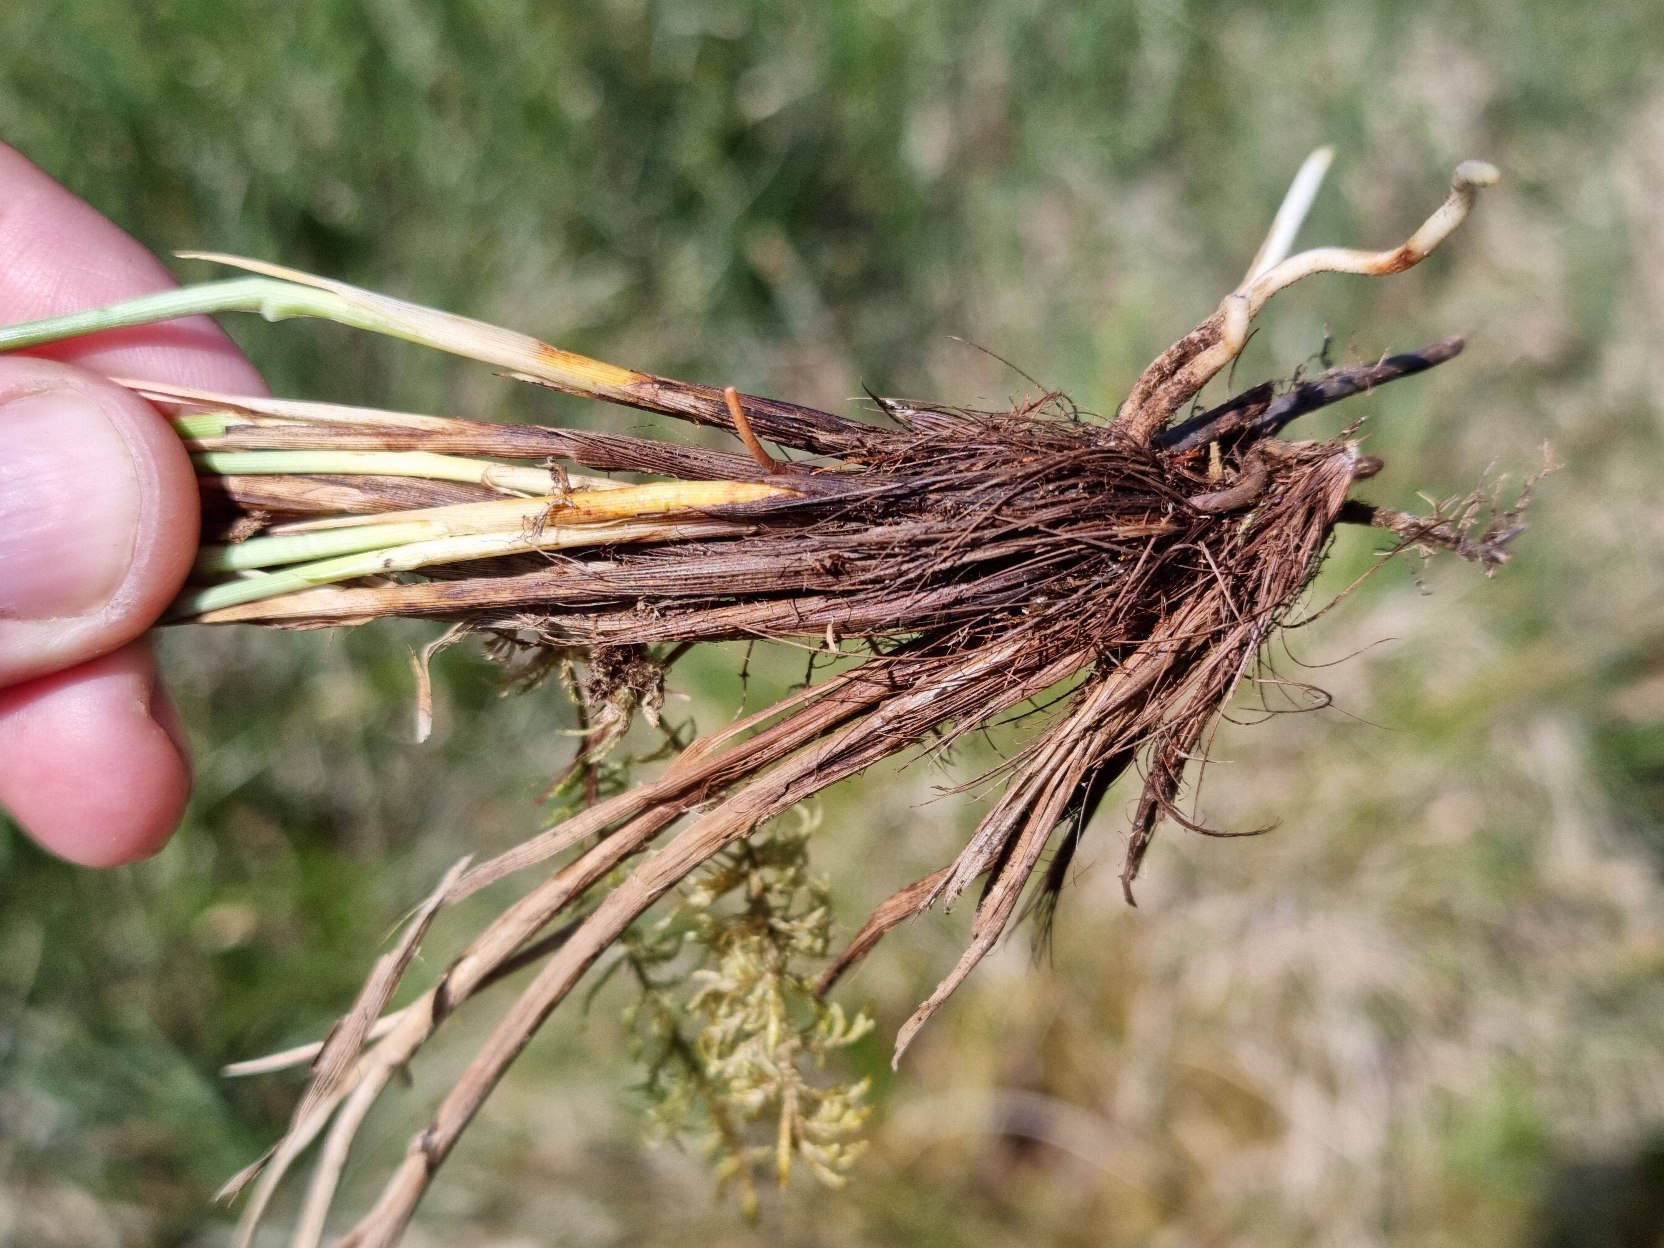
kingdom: Plantae
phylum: Tracheophyta
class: Liliopsida
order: Poales
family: Cyperaceae
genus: Carex
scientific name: Carex appropinquata
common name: Langakset star
